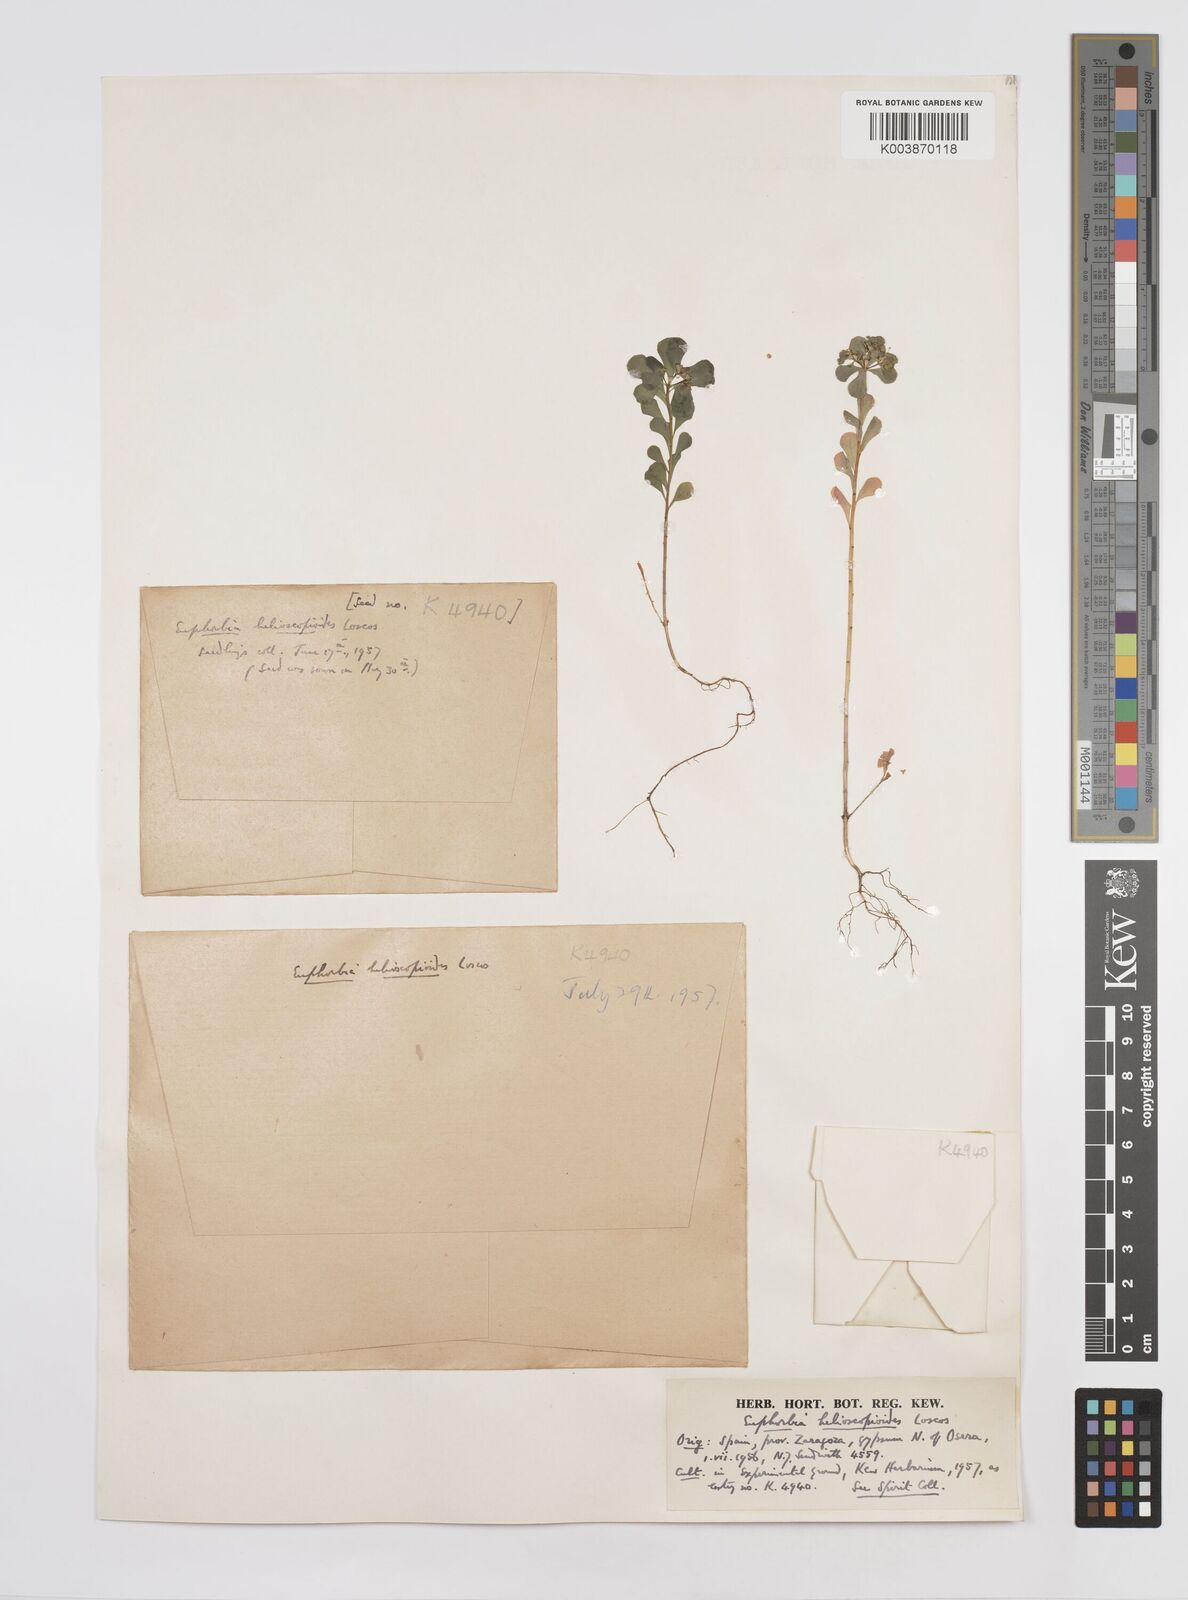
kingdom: Plantae
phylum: Tracheophyta
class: Magnoliopsida
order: Malpighiales
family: Euphorbiaceae
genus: Euphorbia
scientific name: Euphorbia helioscopia
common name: Sun spurge
